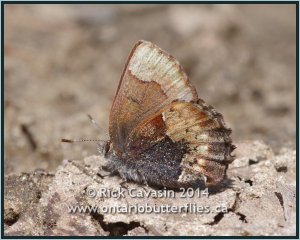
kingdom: Animalia
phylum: Arthropoda
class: Insecta
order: Lepidoptera
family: Lycaenidae
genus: Incisalia
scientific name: Incisalia henrici
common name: Henry's Elfin
